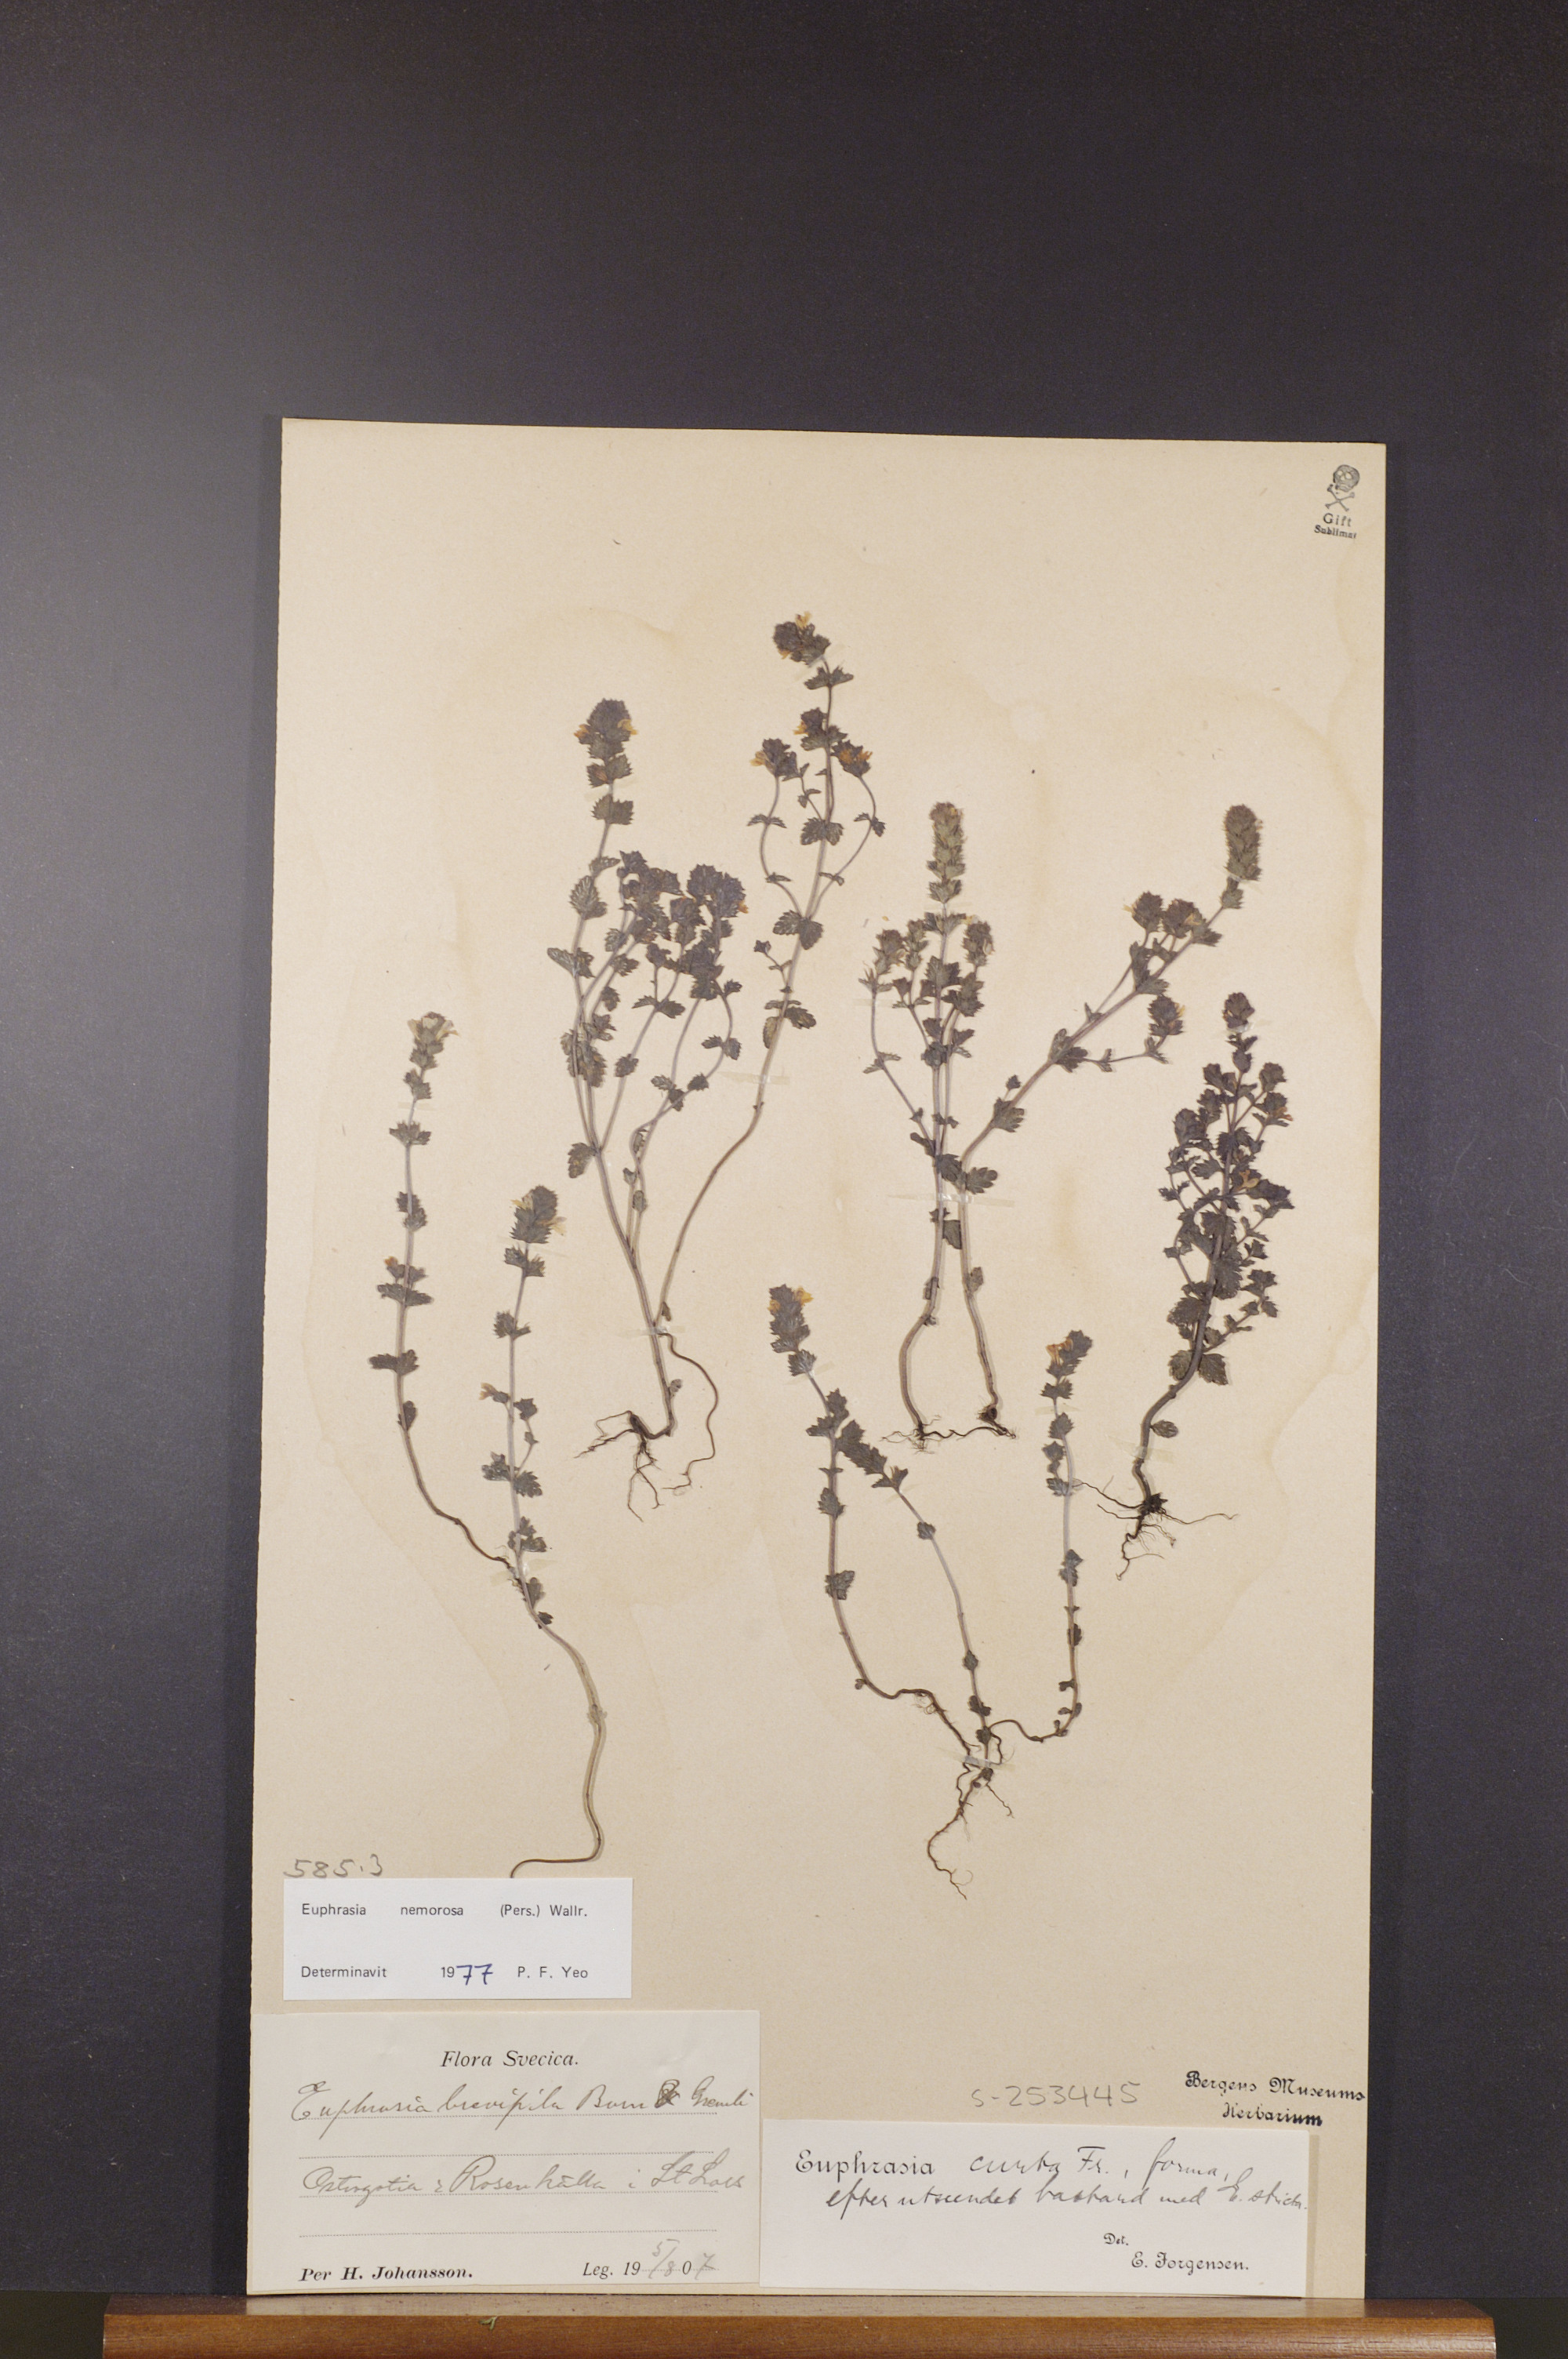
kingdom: Plantae
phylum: Tracheophyta
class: Magnoliopsida
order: Lamiales
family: Orobanchaceae
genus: Euphrasia
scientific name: Euphrasia nemorosa
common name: Common eyebright
